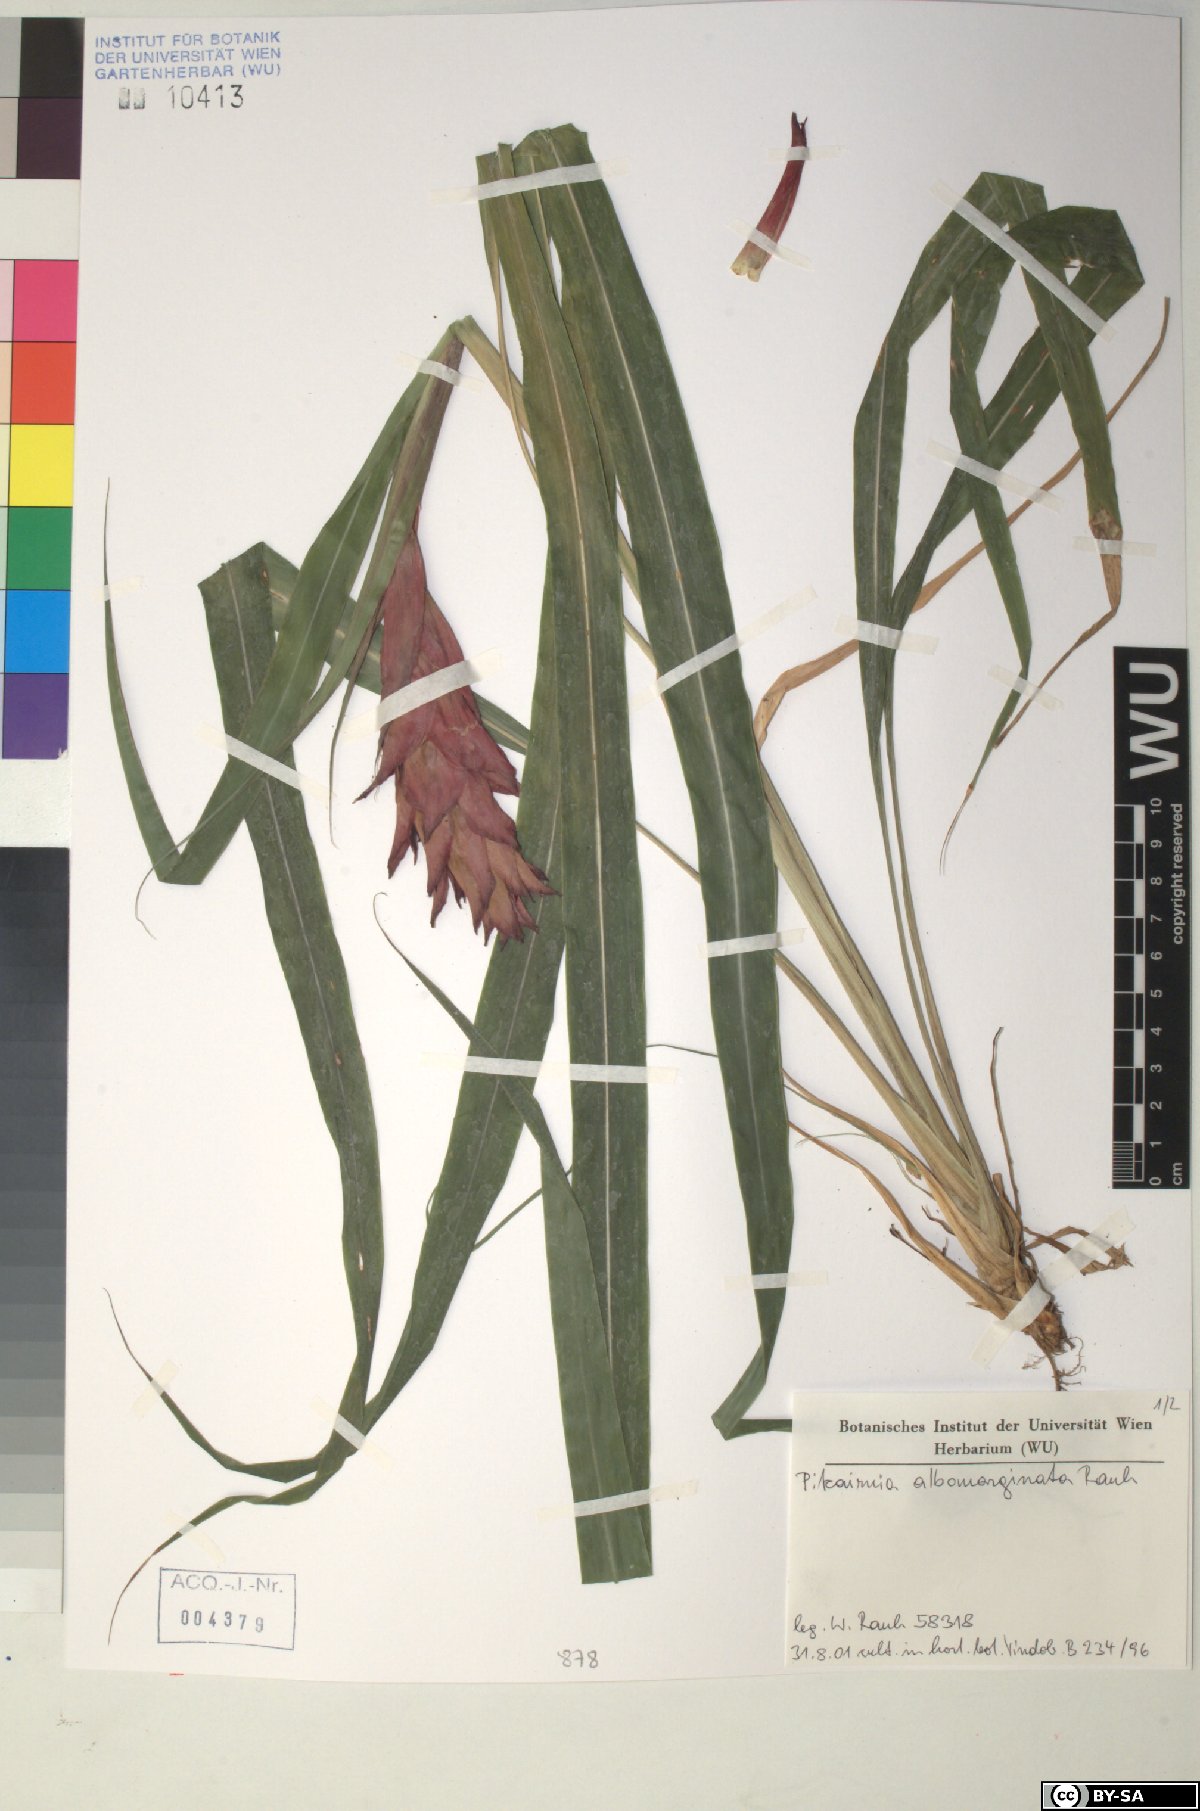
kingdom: Plantae
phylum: Tracheophyta
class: Liliopsida
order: Poales
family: Bromeliaceae
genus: Pitcairnia
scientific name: Pitcairnia hitchcockiana
